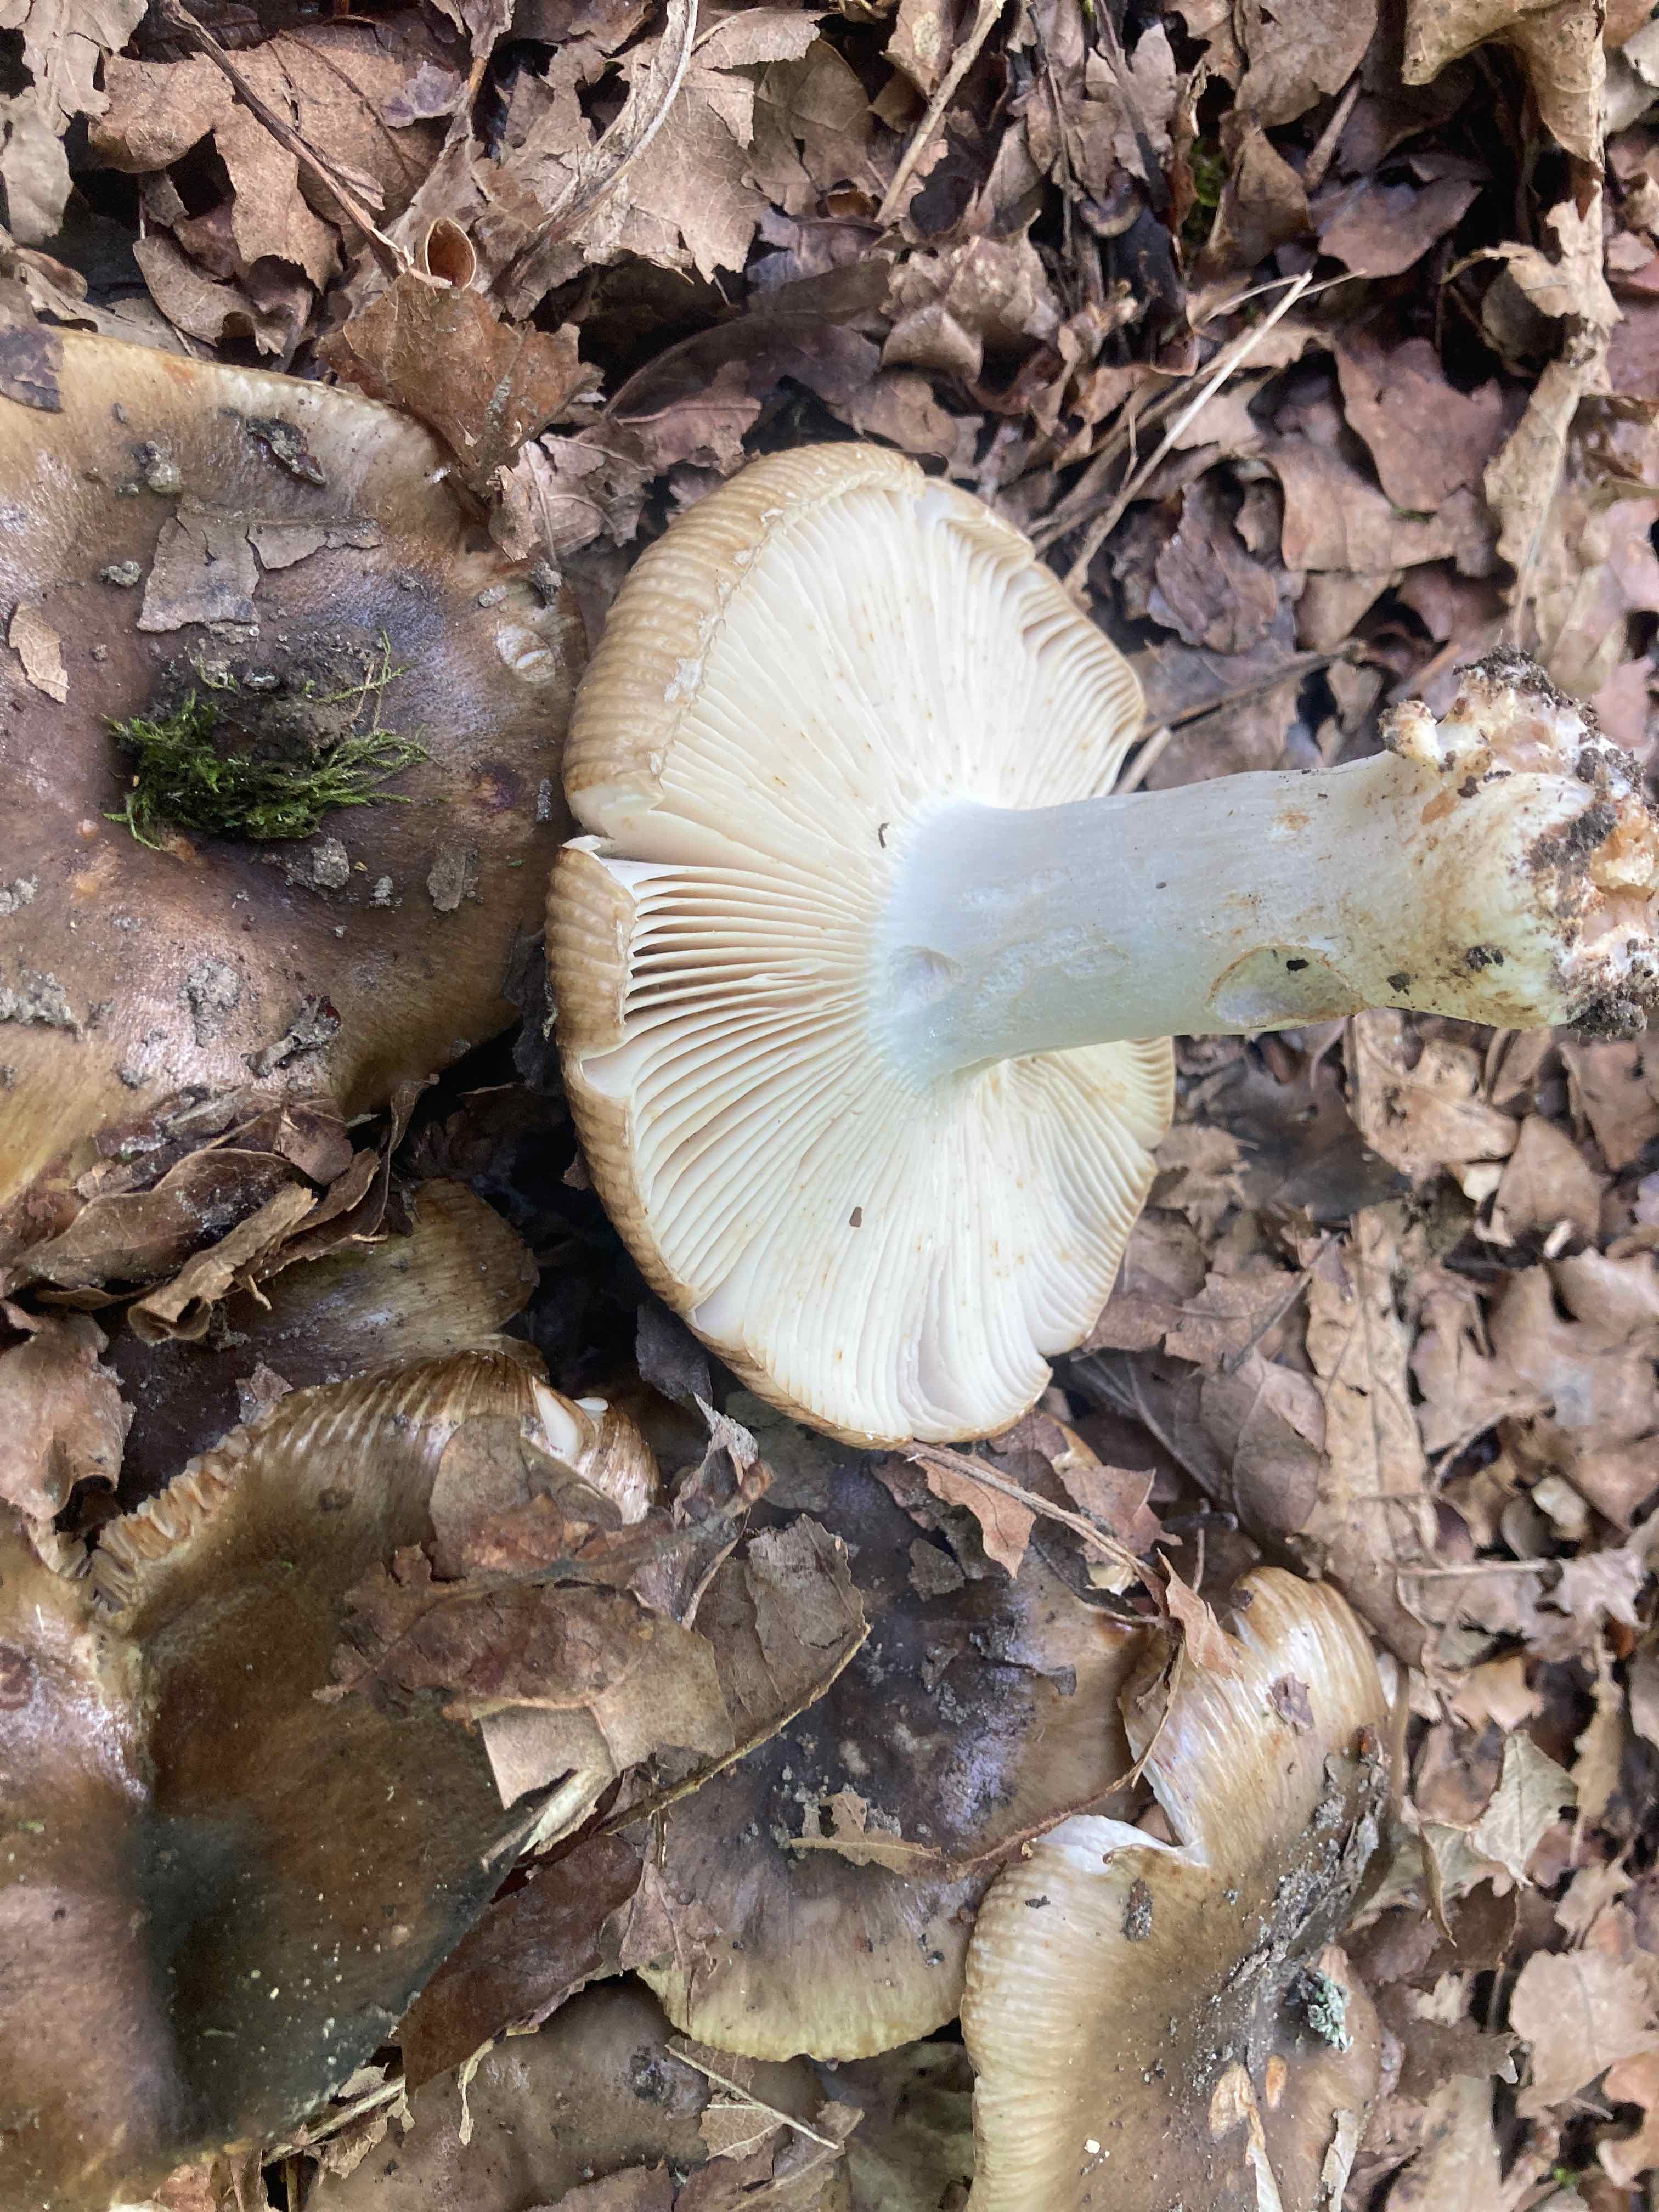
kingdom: Fungi
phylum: Basidiomycota
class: Agaricomycetes
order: Russulales
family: Russulaceae
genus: Russula
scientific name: Russula sororia
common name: brun kam-skørhat
